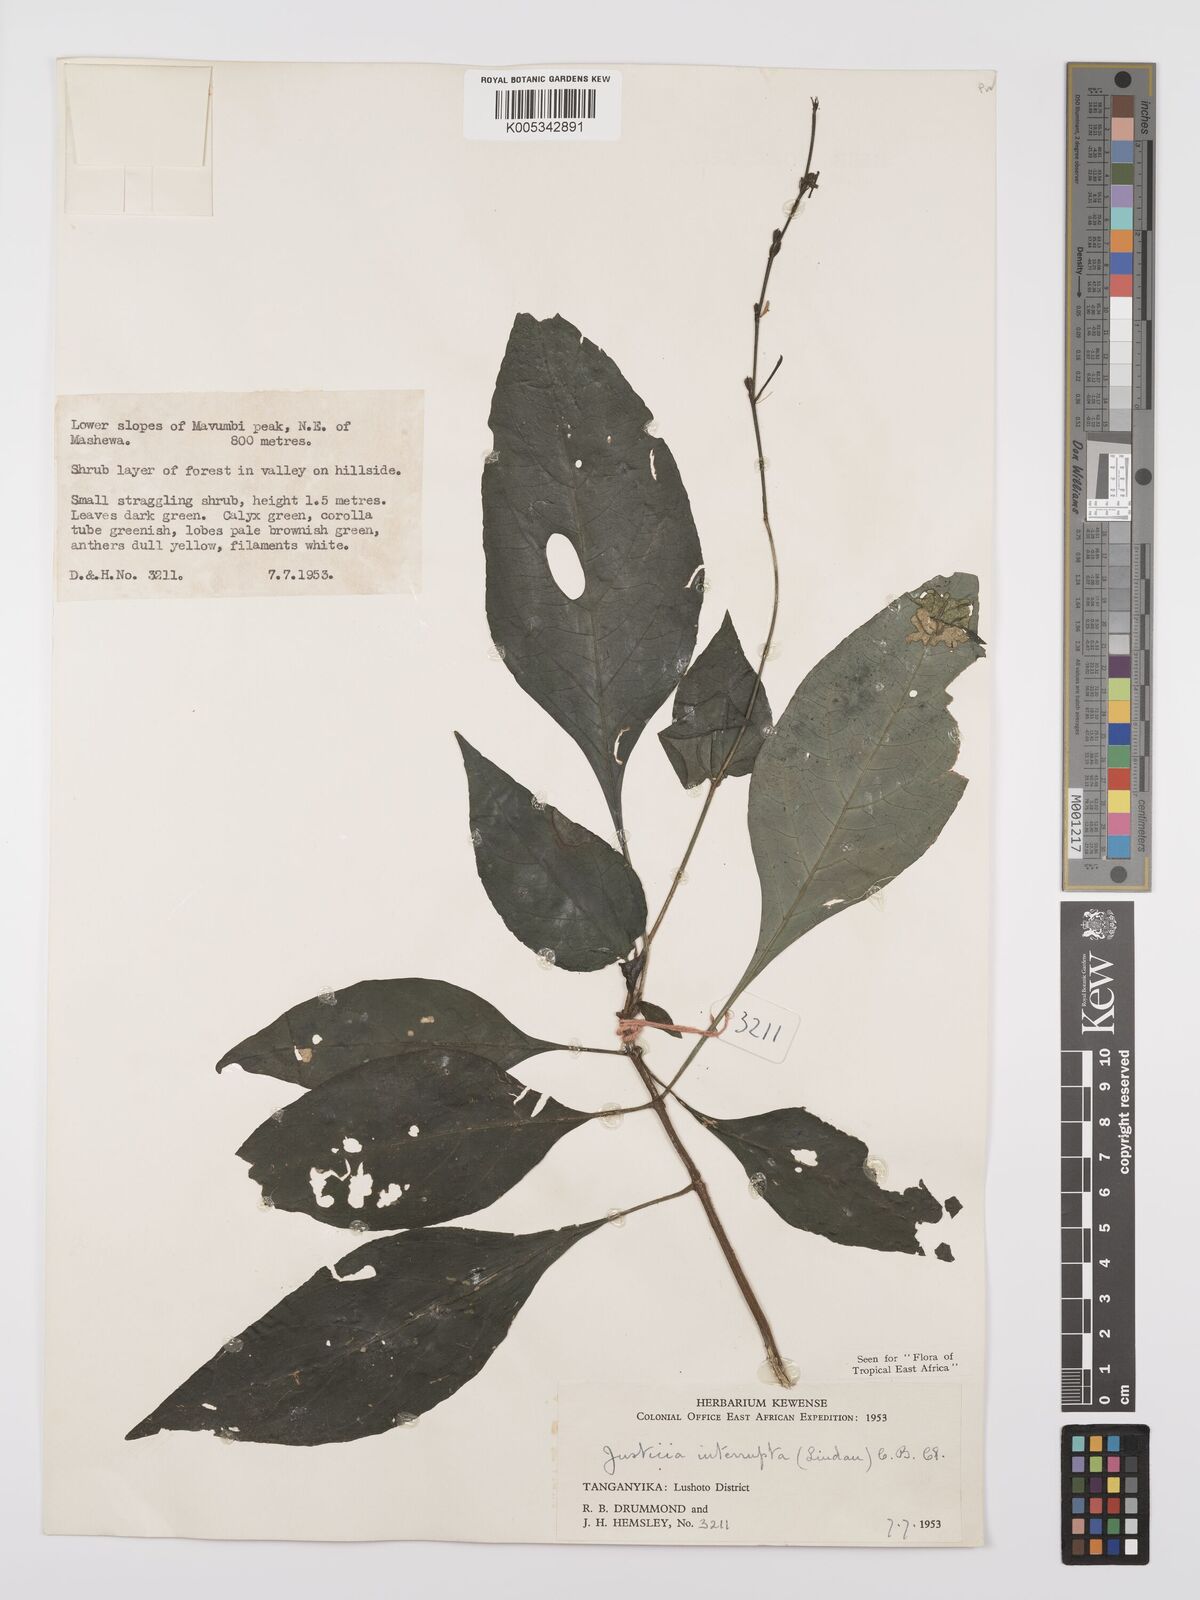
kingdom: Plantae
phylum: Tracheophyta
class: Magnoliopsida
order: Lamiales
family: Acanthaceae
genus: Justicia
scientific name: Justicia plectranthoides
